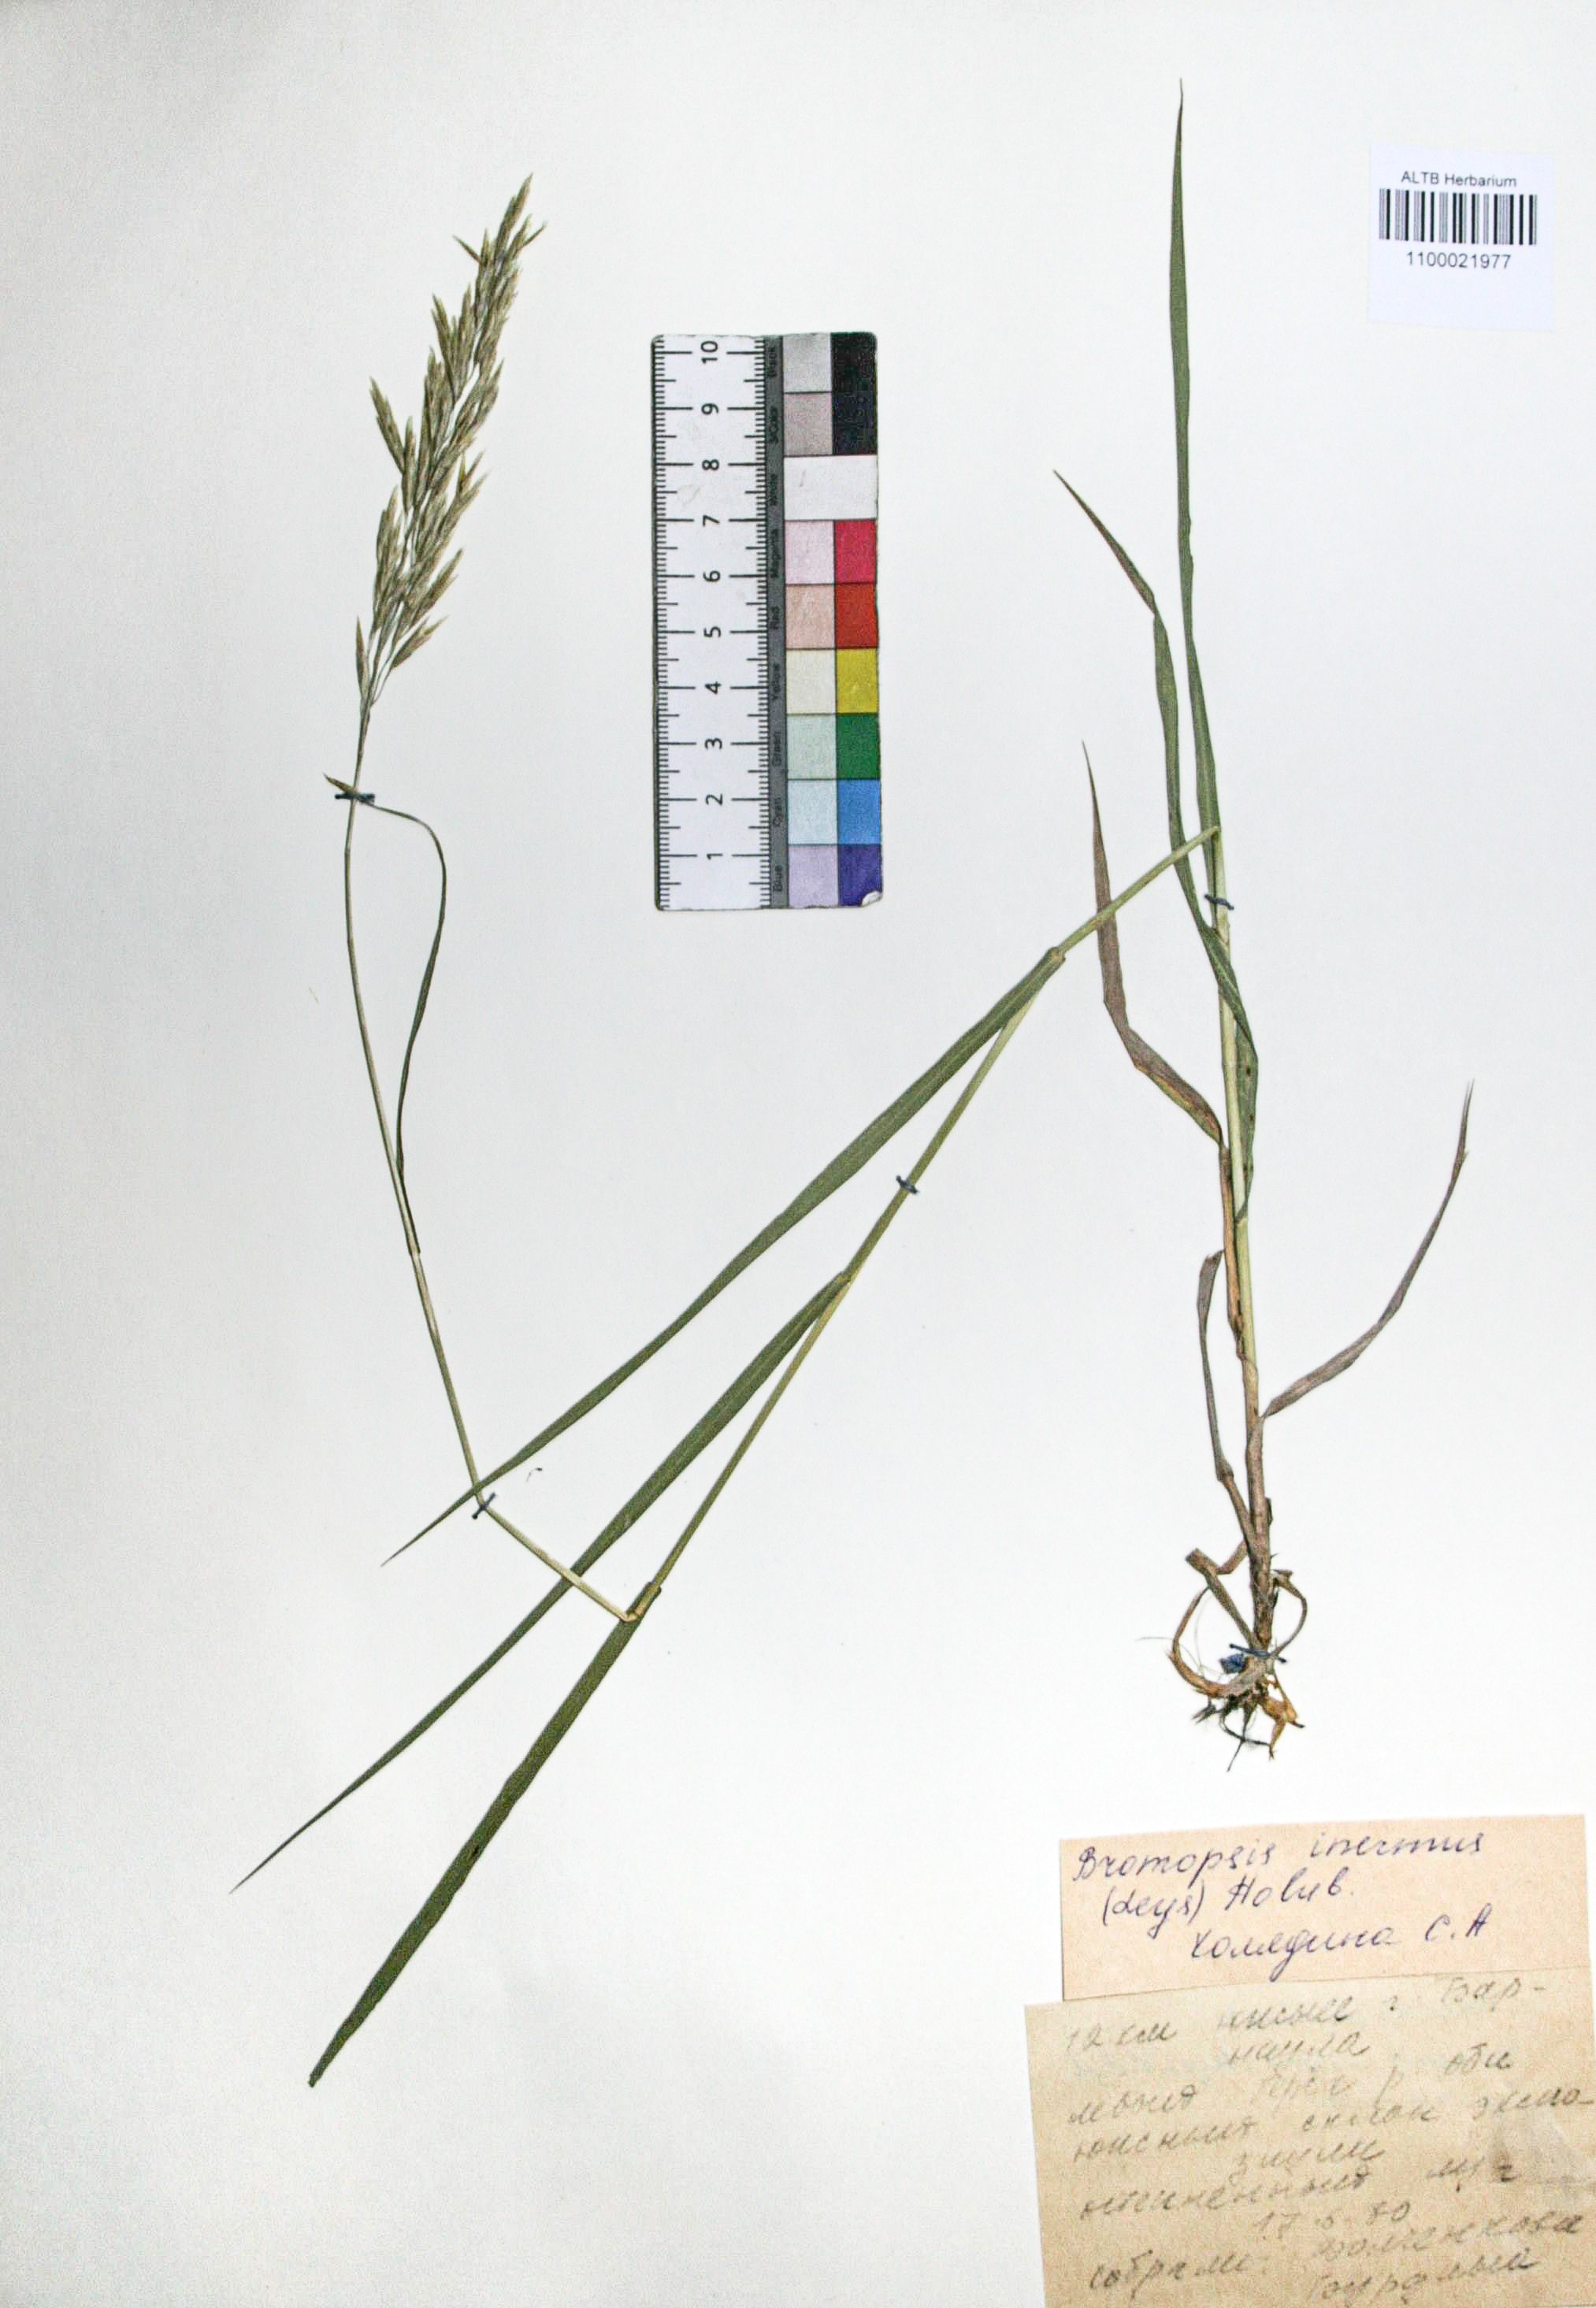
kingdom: Plantae
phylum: Tracheophyta
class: Liliopsida
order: Poales
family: Poaceae
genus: Bromus
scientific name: Bromus inermis
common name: Smooth brome
